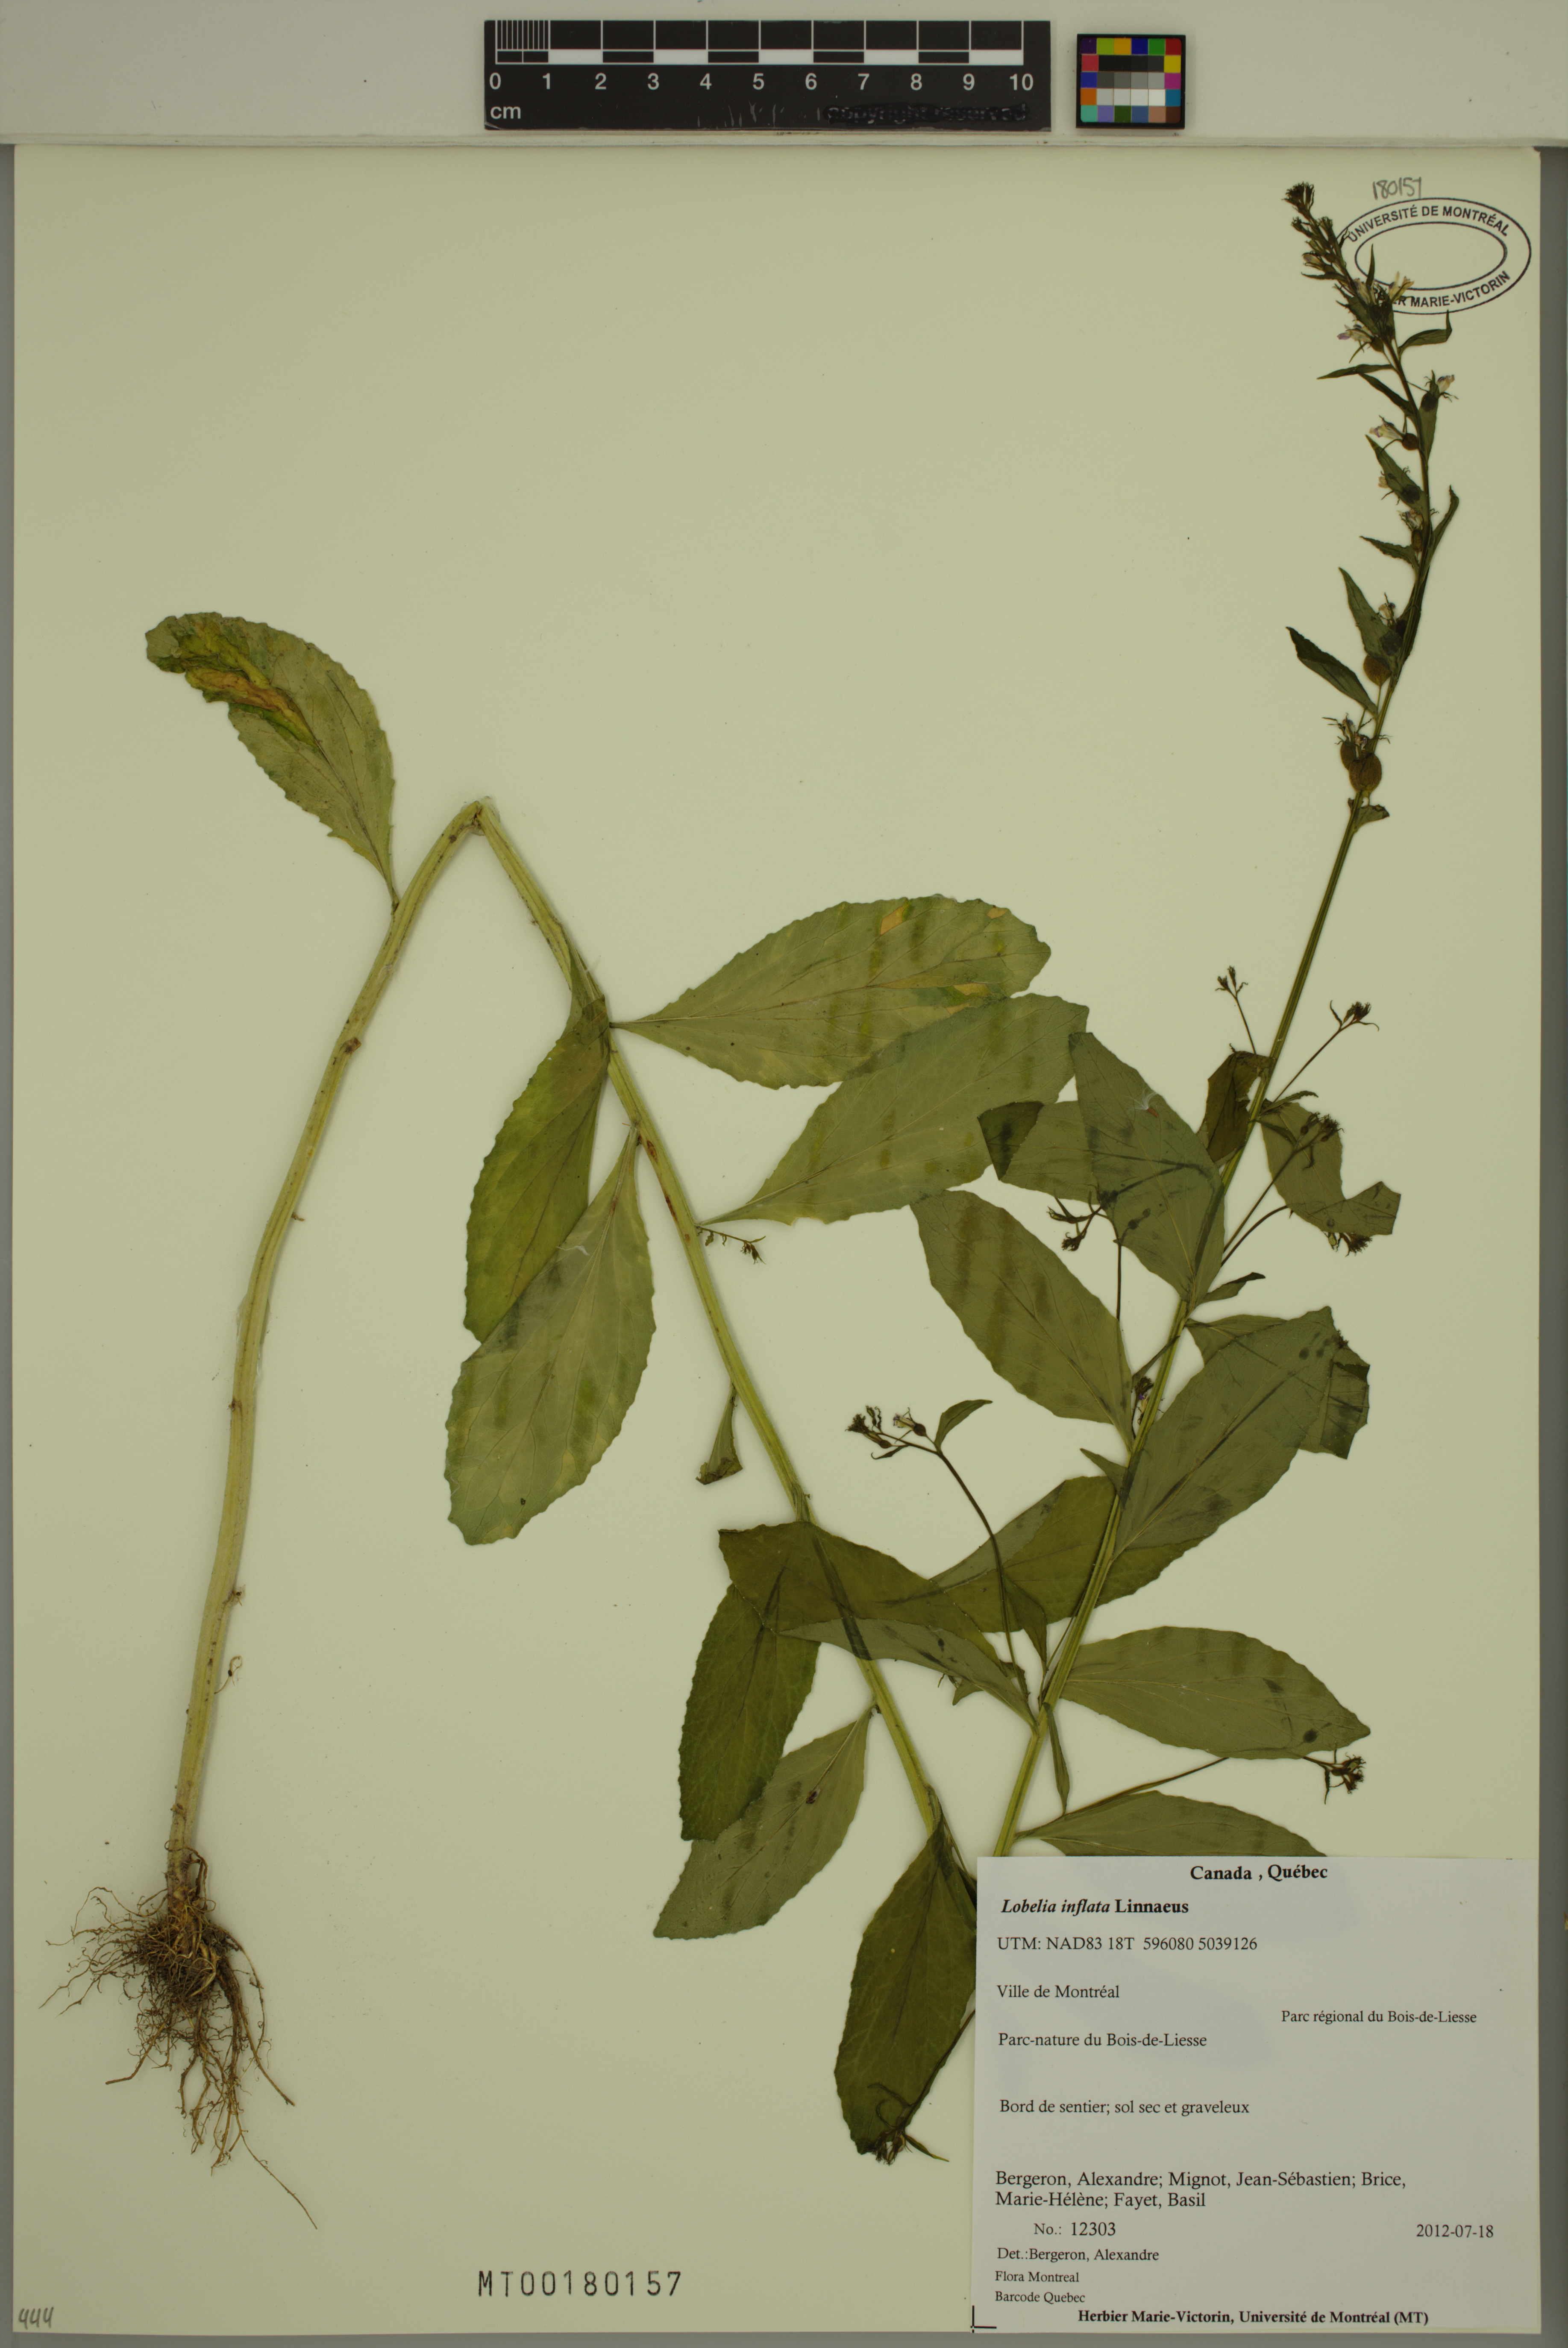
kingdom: Plantae
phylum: Tracheophyta
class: Magnoliopsida
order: Asterales
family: Campanulaceae
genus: Lobelia
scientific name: Lobelia inflata
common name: Indian tobacco
